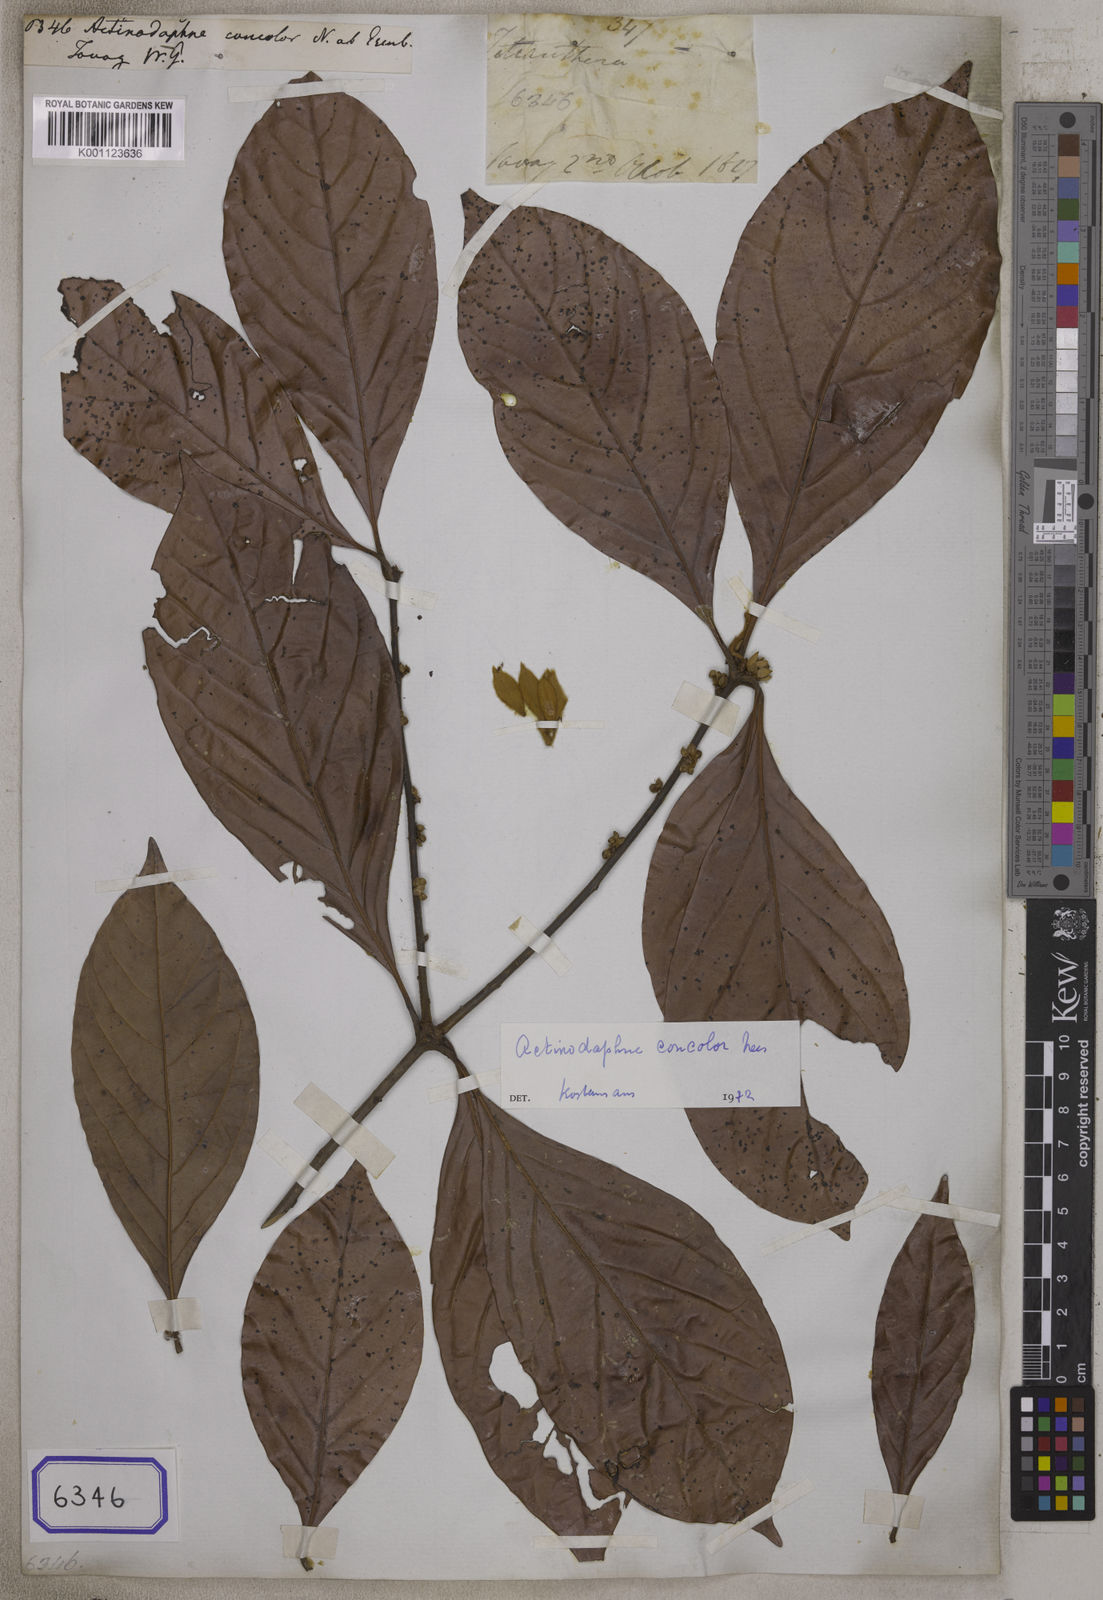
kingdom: Plantae
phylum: Tracheophyta
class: Magnoliopsida
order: Laurales
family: Lauraceae
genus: Actinodaphne
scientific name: Actinodaphne concolor
